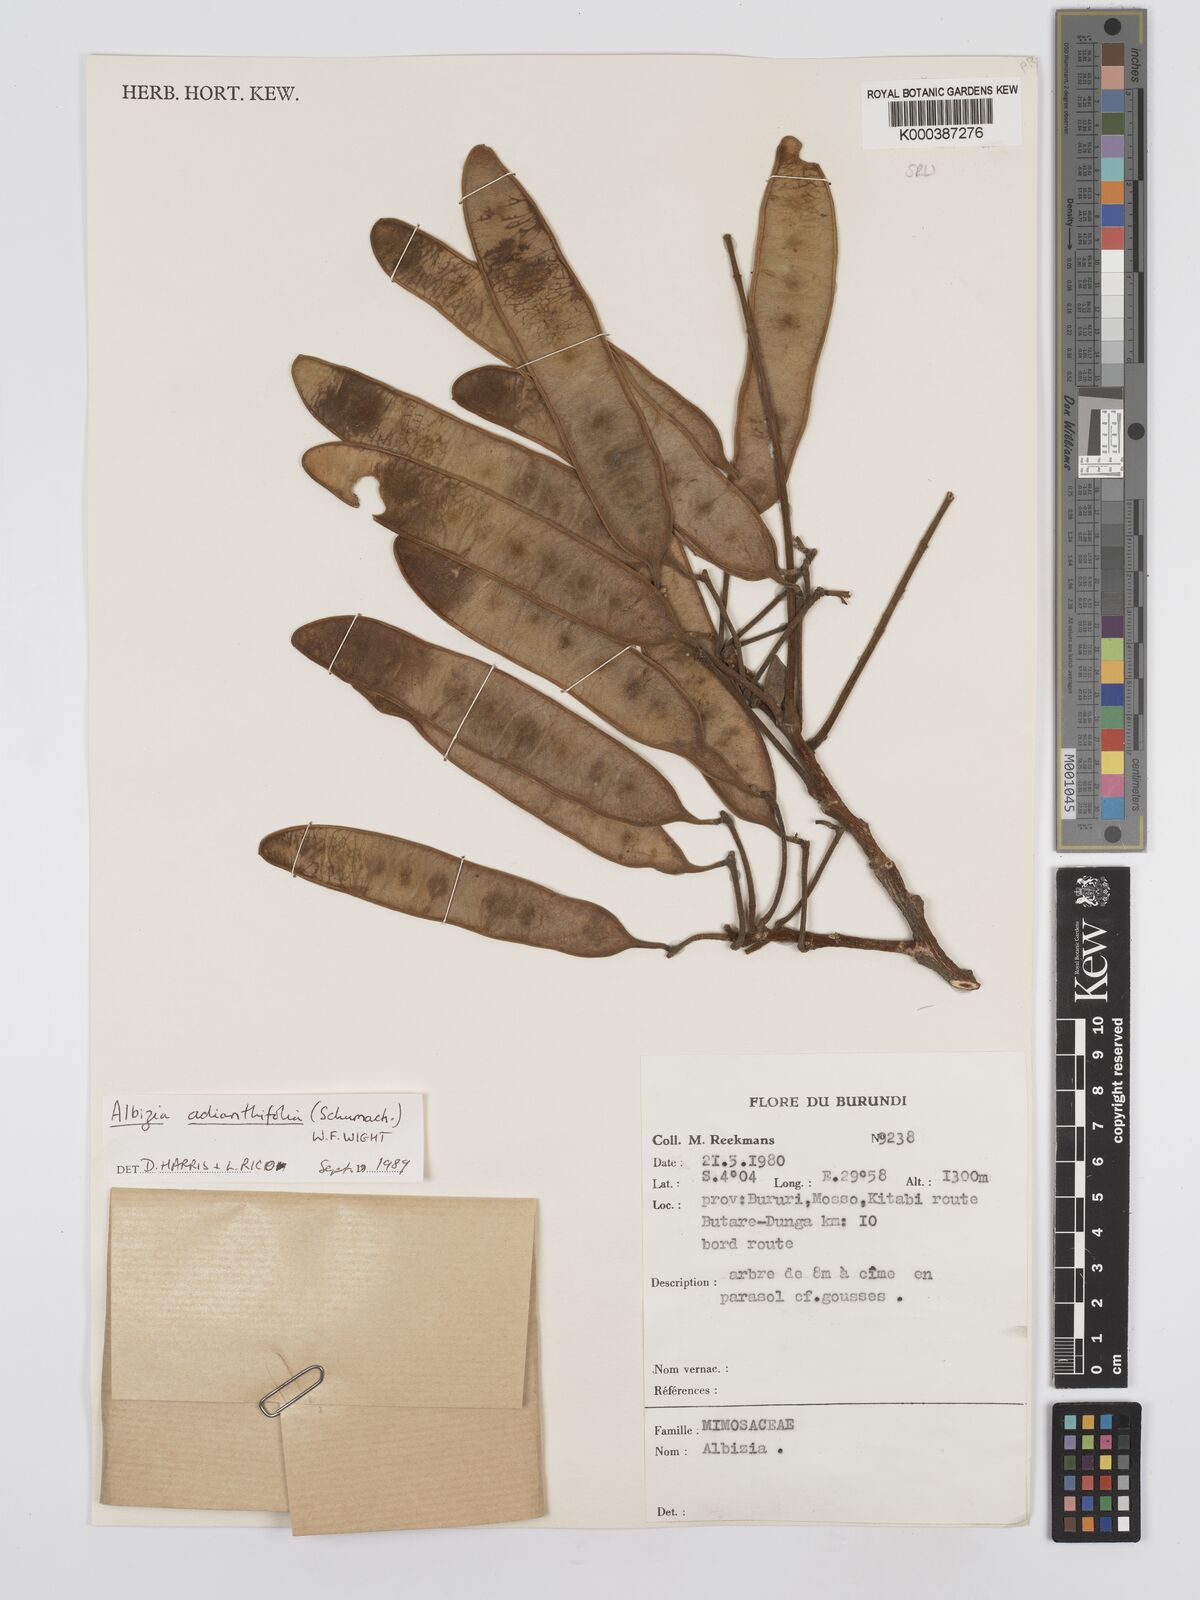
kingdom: Plantae
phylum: Tracheophyta
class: Magnoliopsida
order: Fabales
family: Fabaceae
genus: Albizia
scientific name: Albizia adianthifolia
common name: West african albizia
